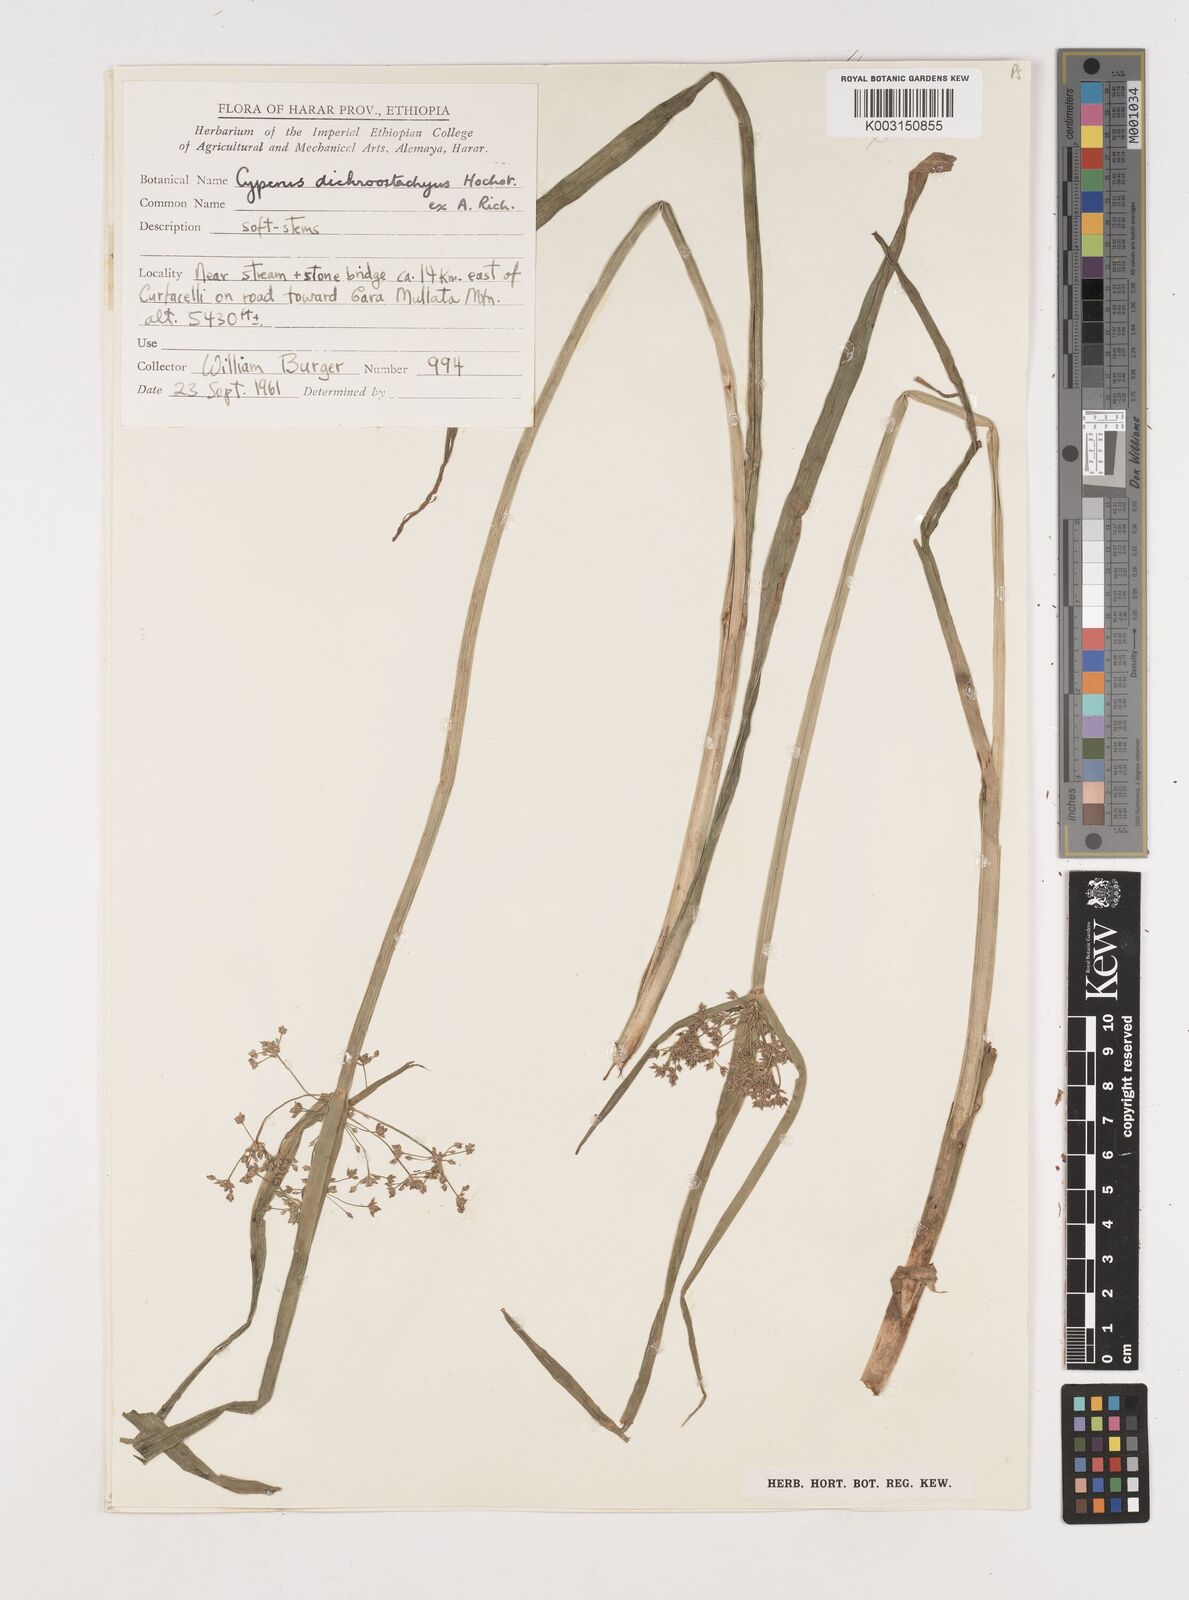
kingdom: Plantae
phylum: Tracheophyta
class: Liliopsida
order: Poales
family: Cyperaceae
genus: Cyperus
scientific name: Cyperus dichrostachyus
